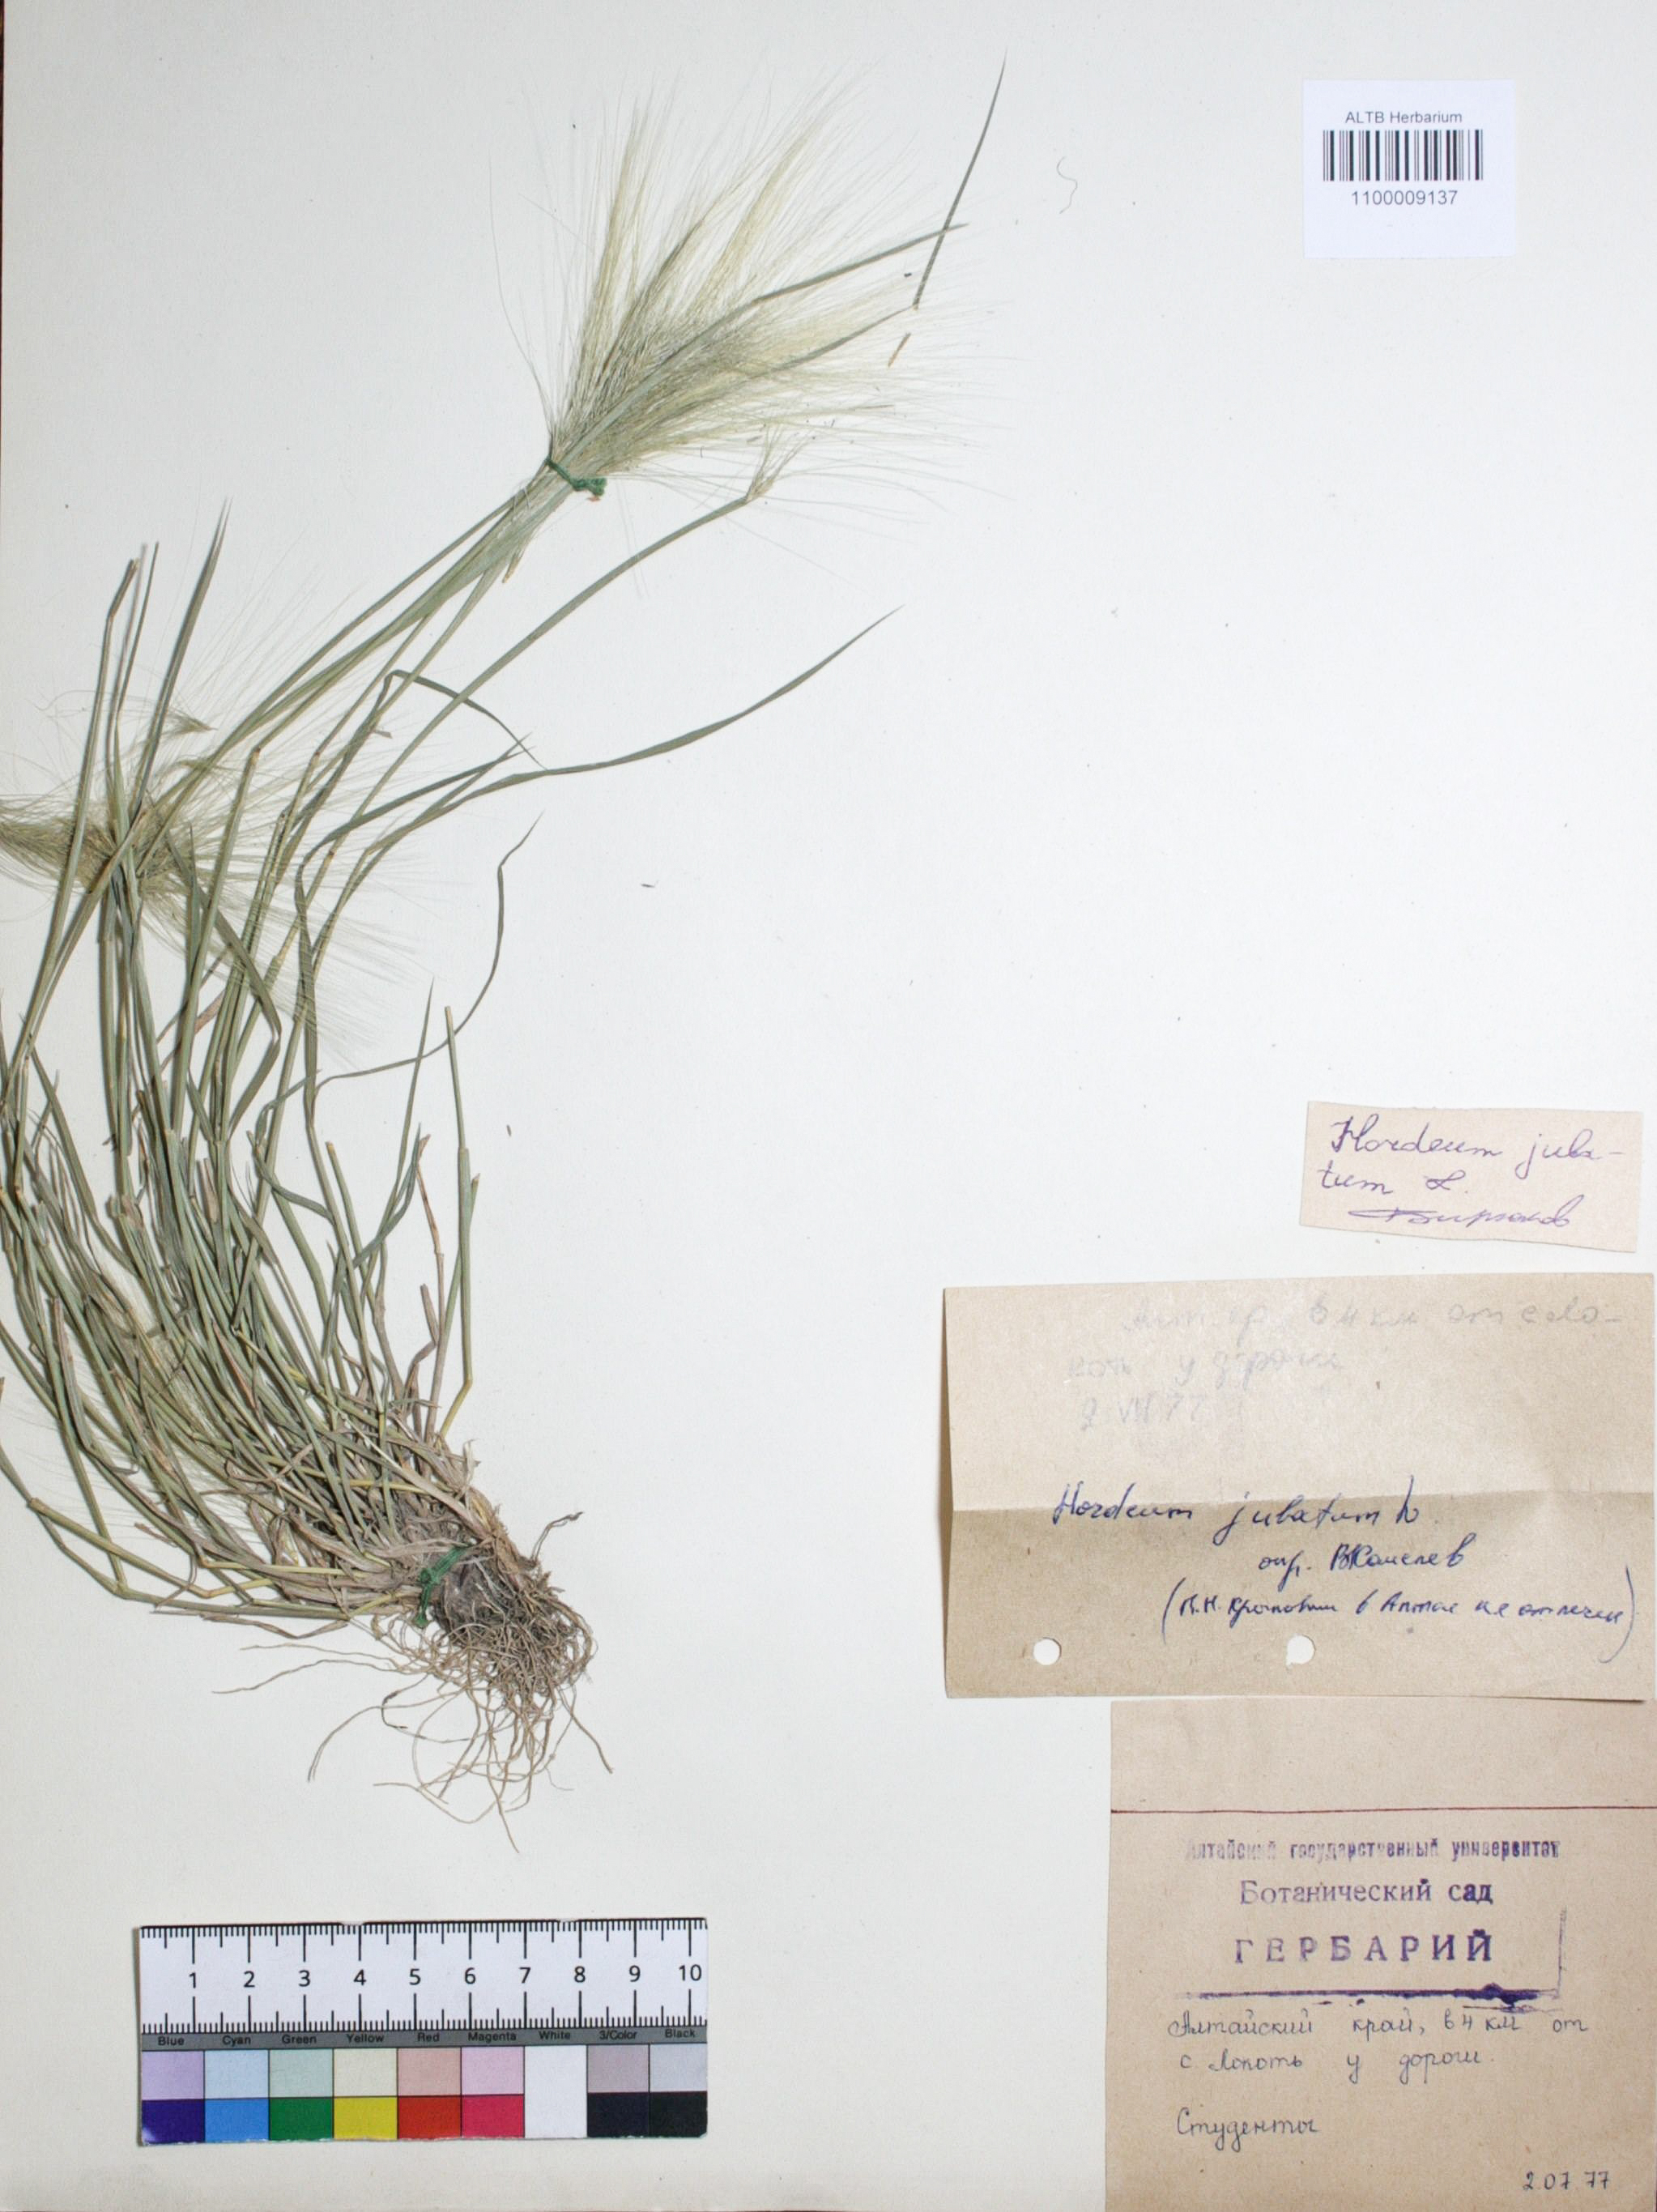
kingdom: Plantae
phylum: Tracheophyta
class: Liliopsida
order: Poales
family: Poaceae
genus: Hordeum
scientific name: Hordeum jubatum
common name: Foxtail barley
